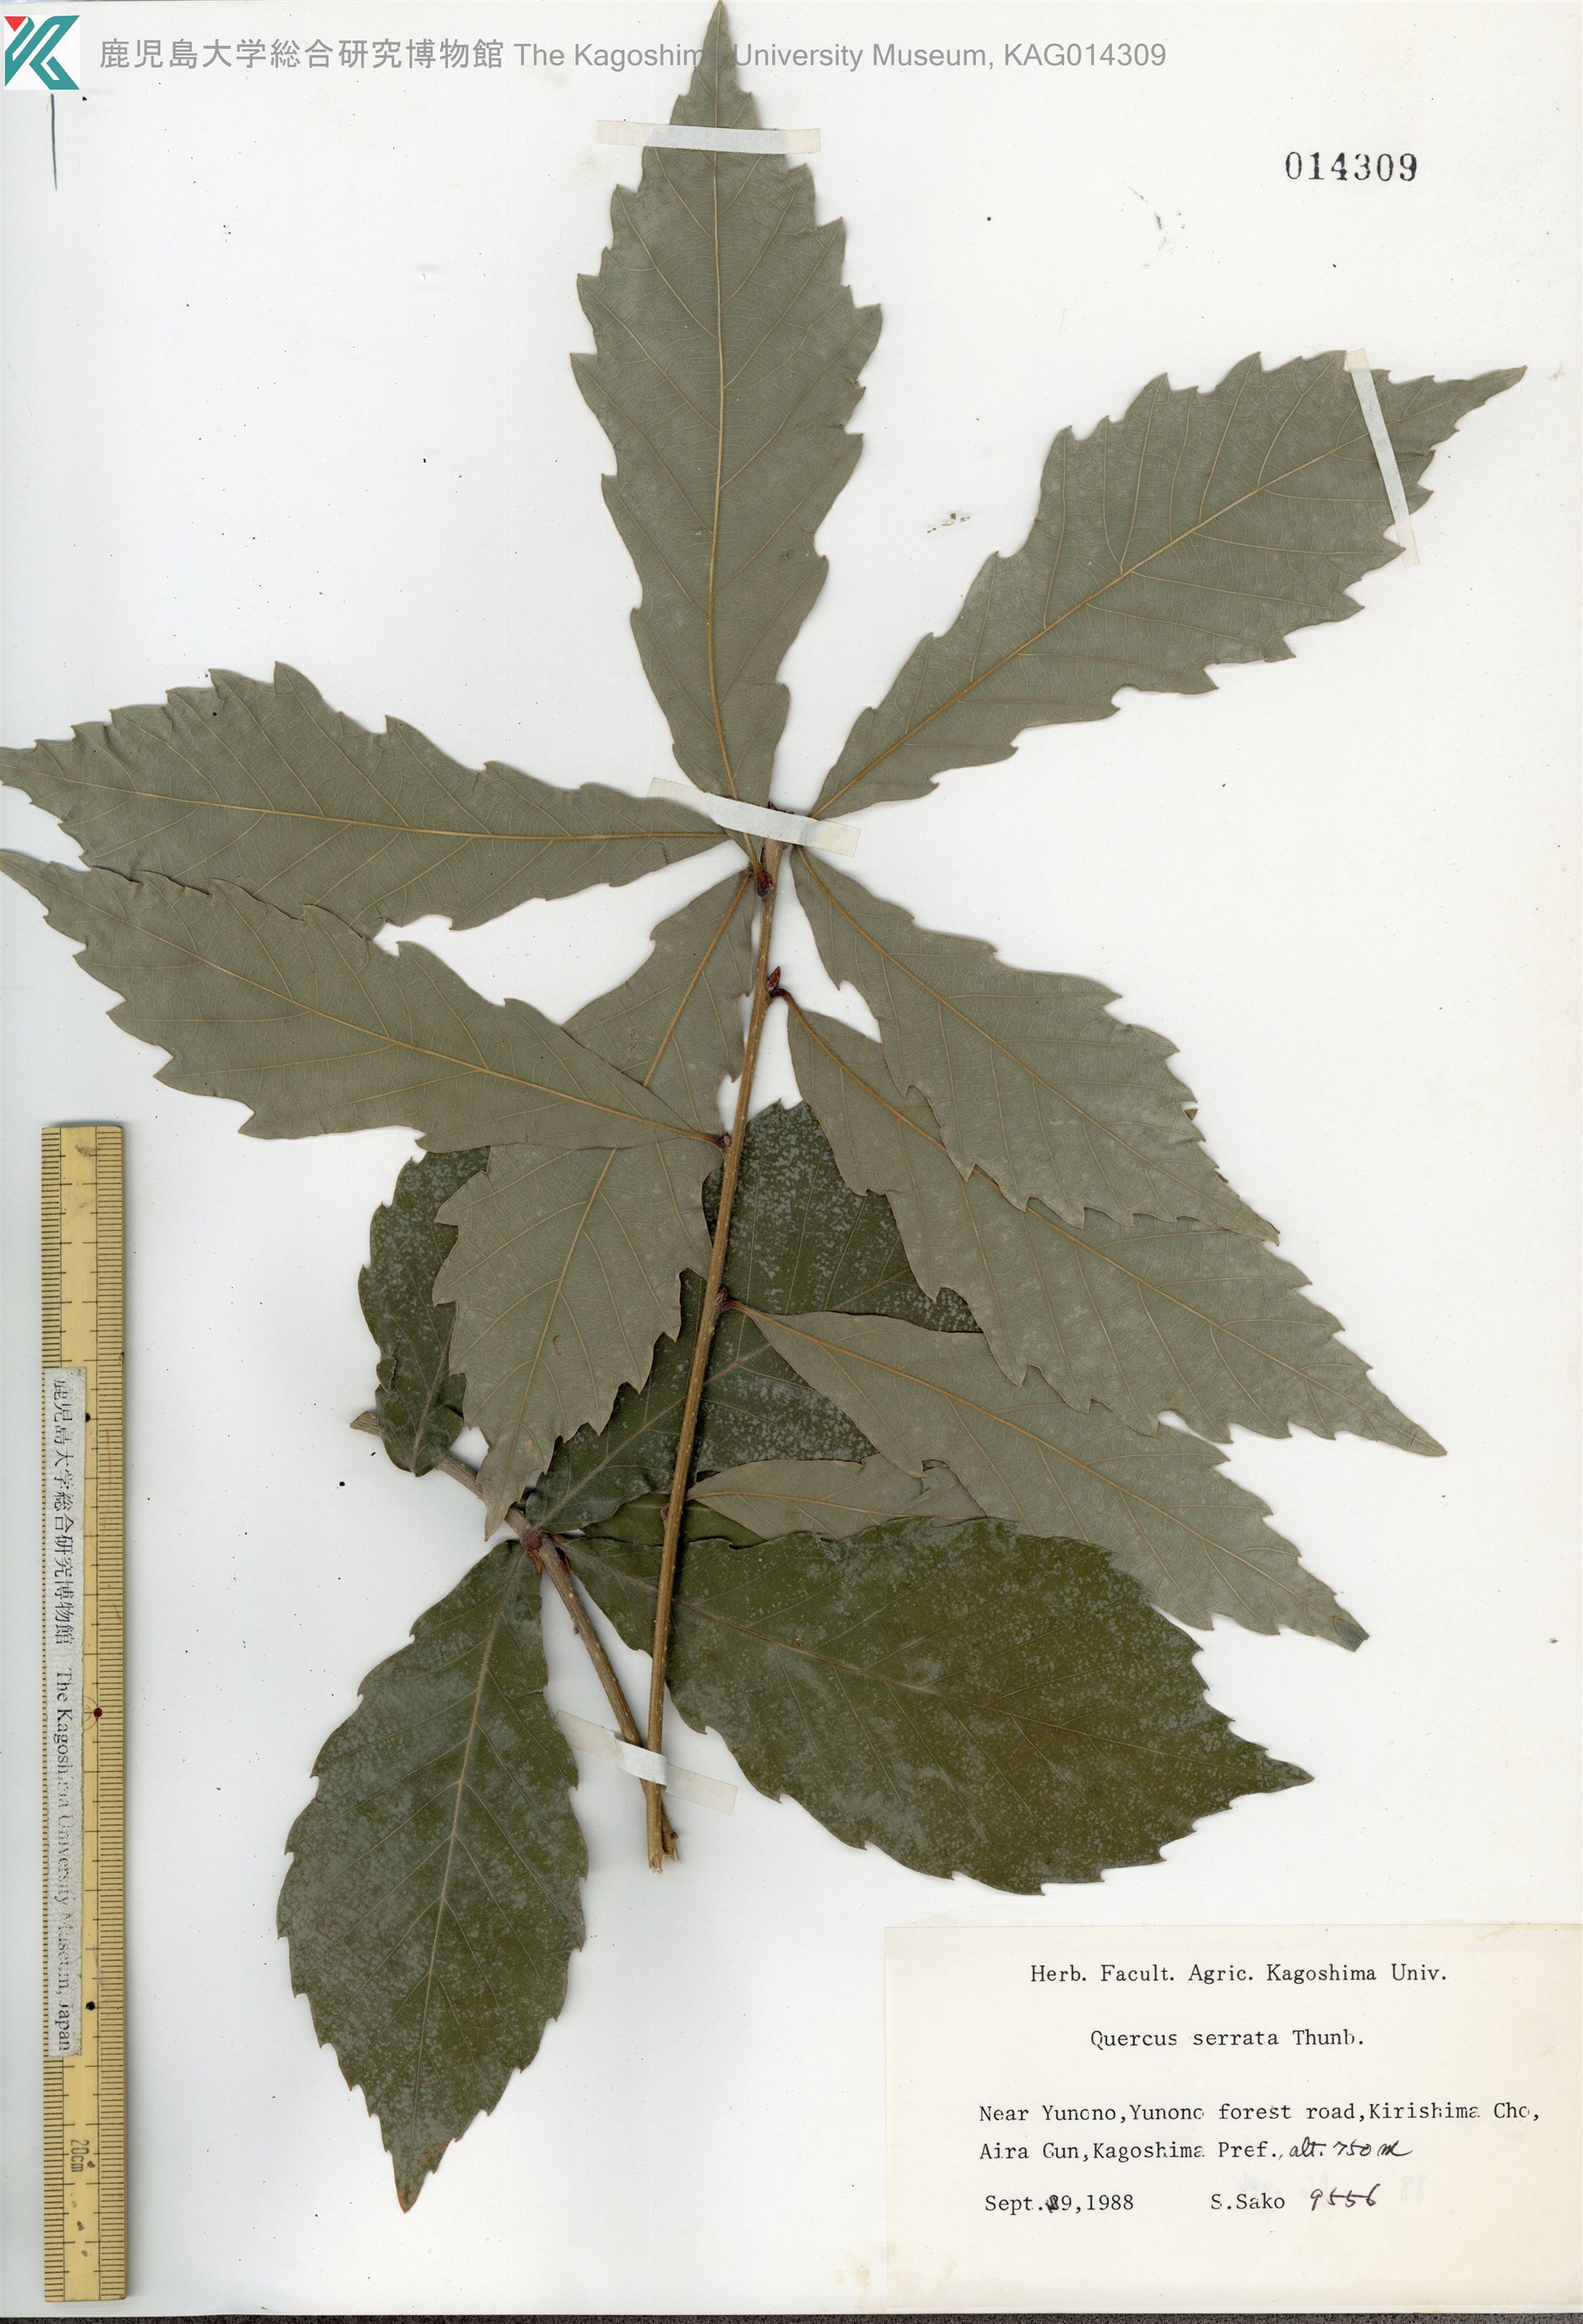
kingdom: Plantae
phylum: Tracheophyta
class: Magnoliopsida
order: Fagales
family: Fagaceae
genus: Quercus
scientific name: Quercus serrata
